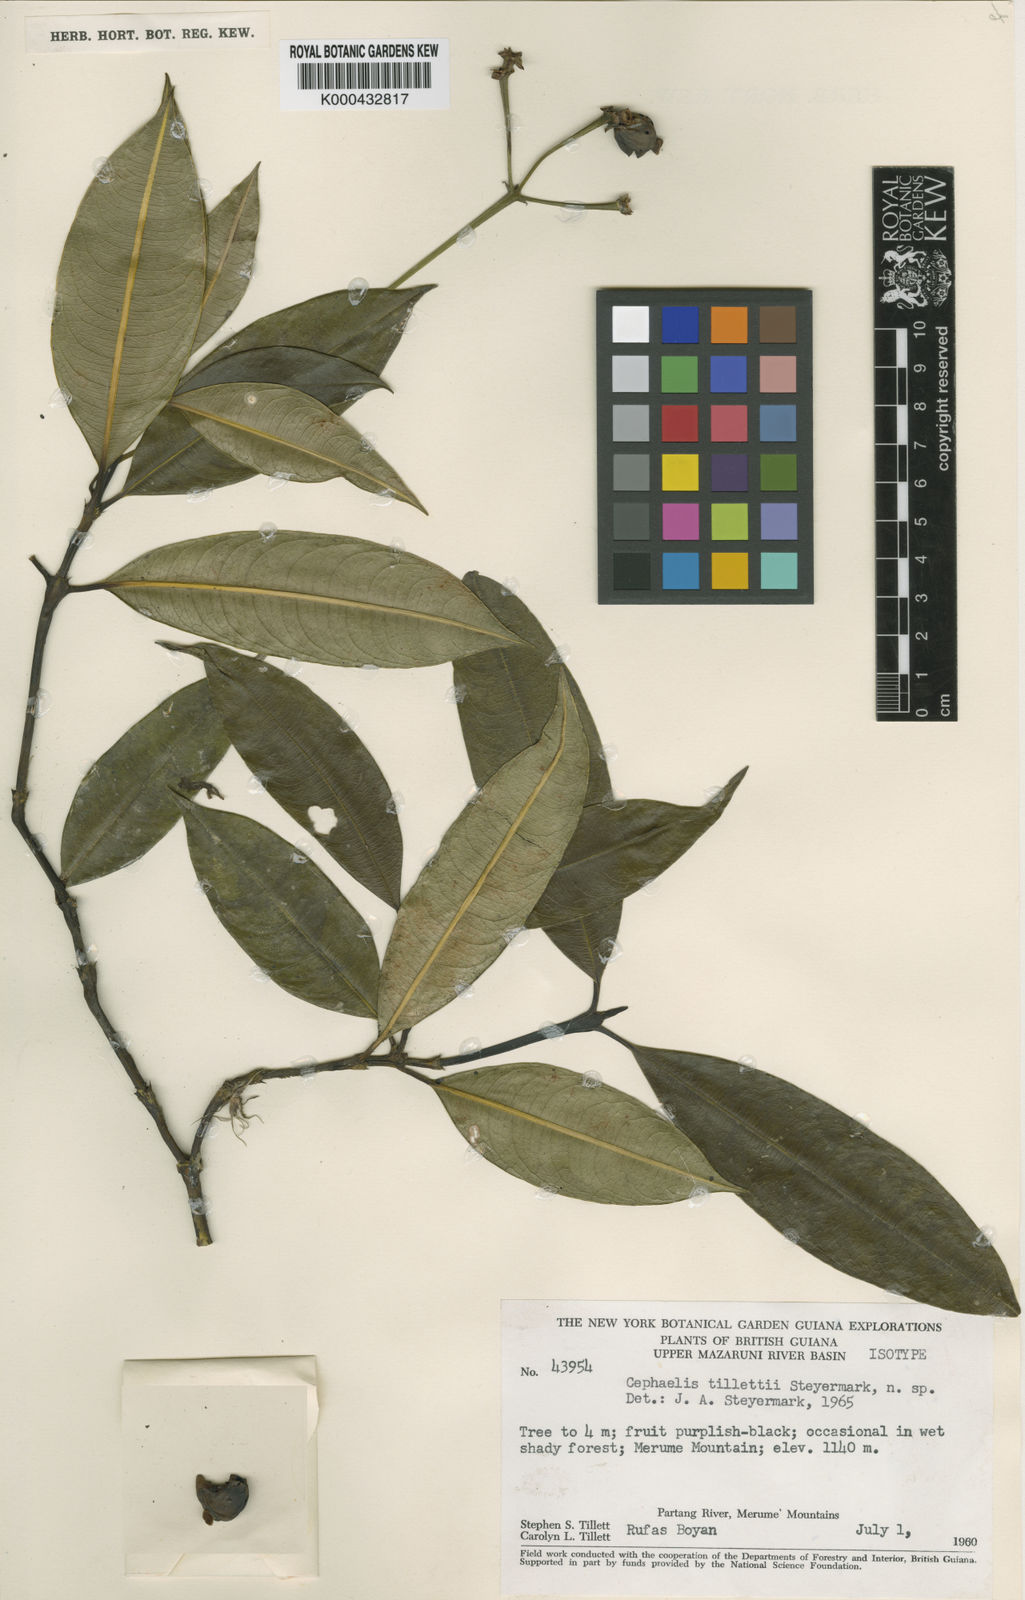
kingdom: Plantae
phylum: Tracheophyta
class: Magnoliopsida
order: Gentianales
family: Rubiaceae
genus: Psychotria
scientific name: Psychotria
